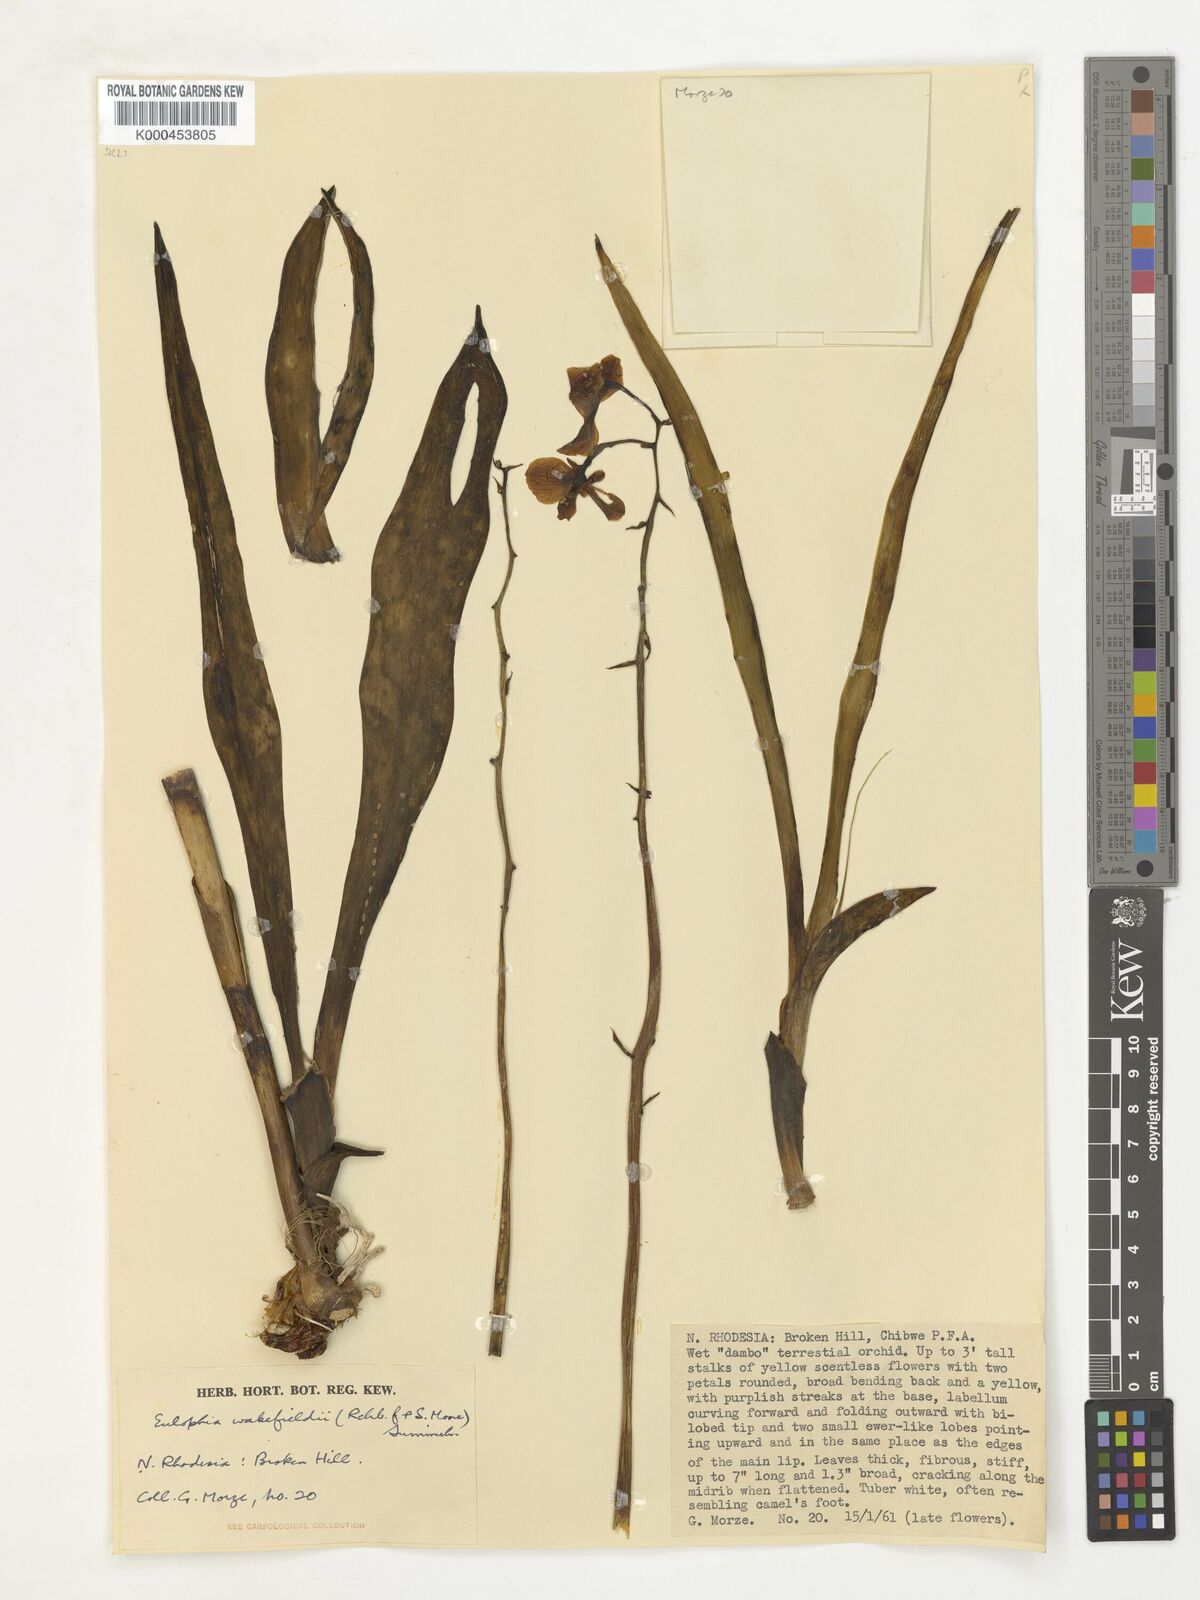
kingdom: Plantae
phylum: Tracheophyta
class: Liliopsida
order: Asparagales
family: Orchidaceae
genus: Eulophia
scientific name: Eulophia speciosa
